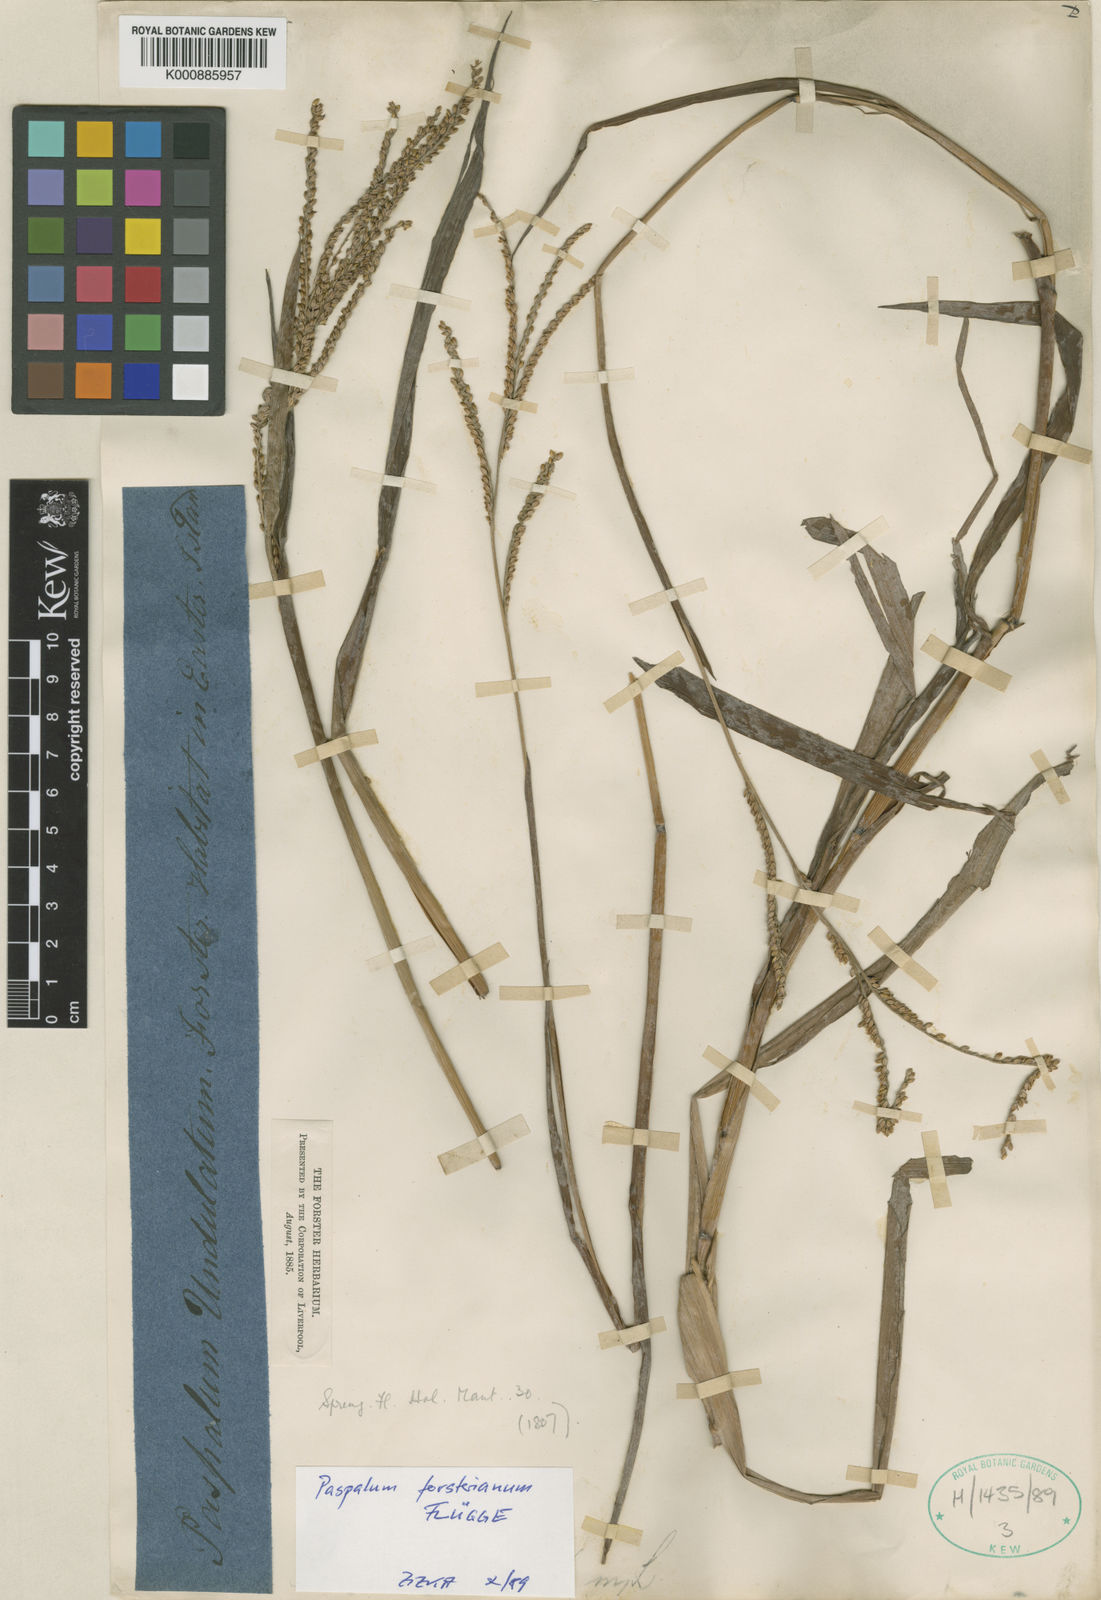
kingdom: Plantae
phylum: Tracheophyta
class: Liliopsida
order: Poales
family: Poaceae
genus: Paspalum
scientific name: Paspalum
